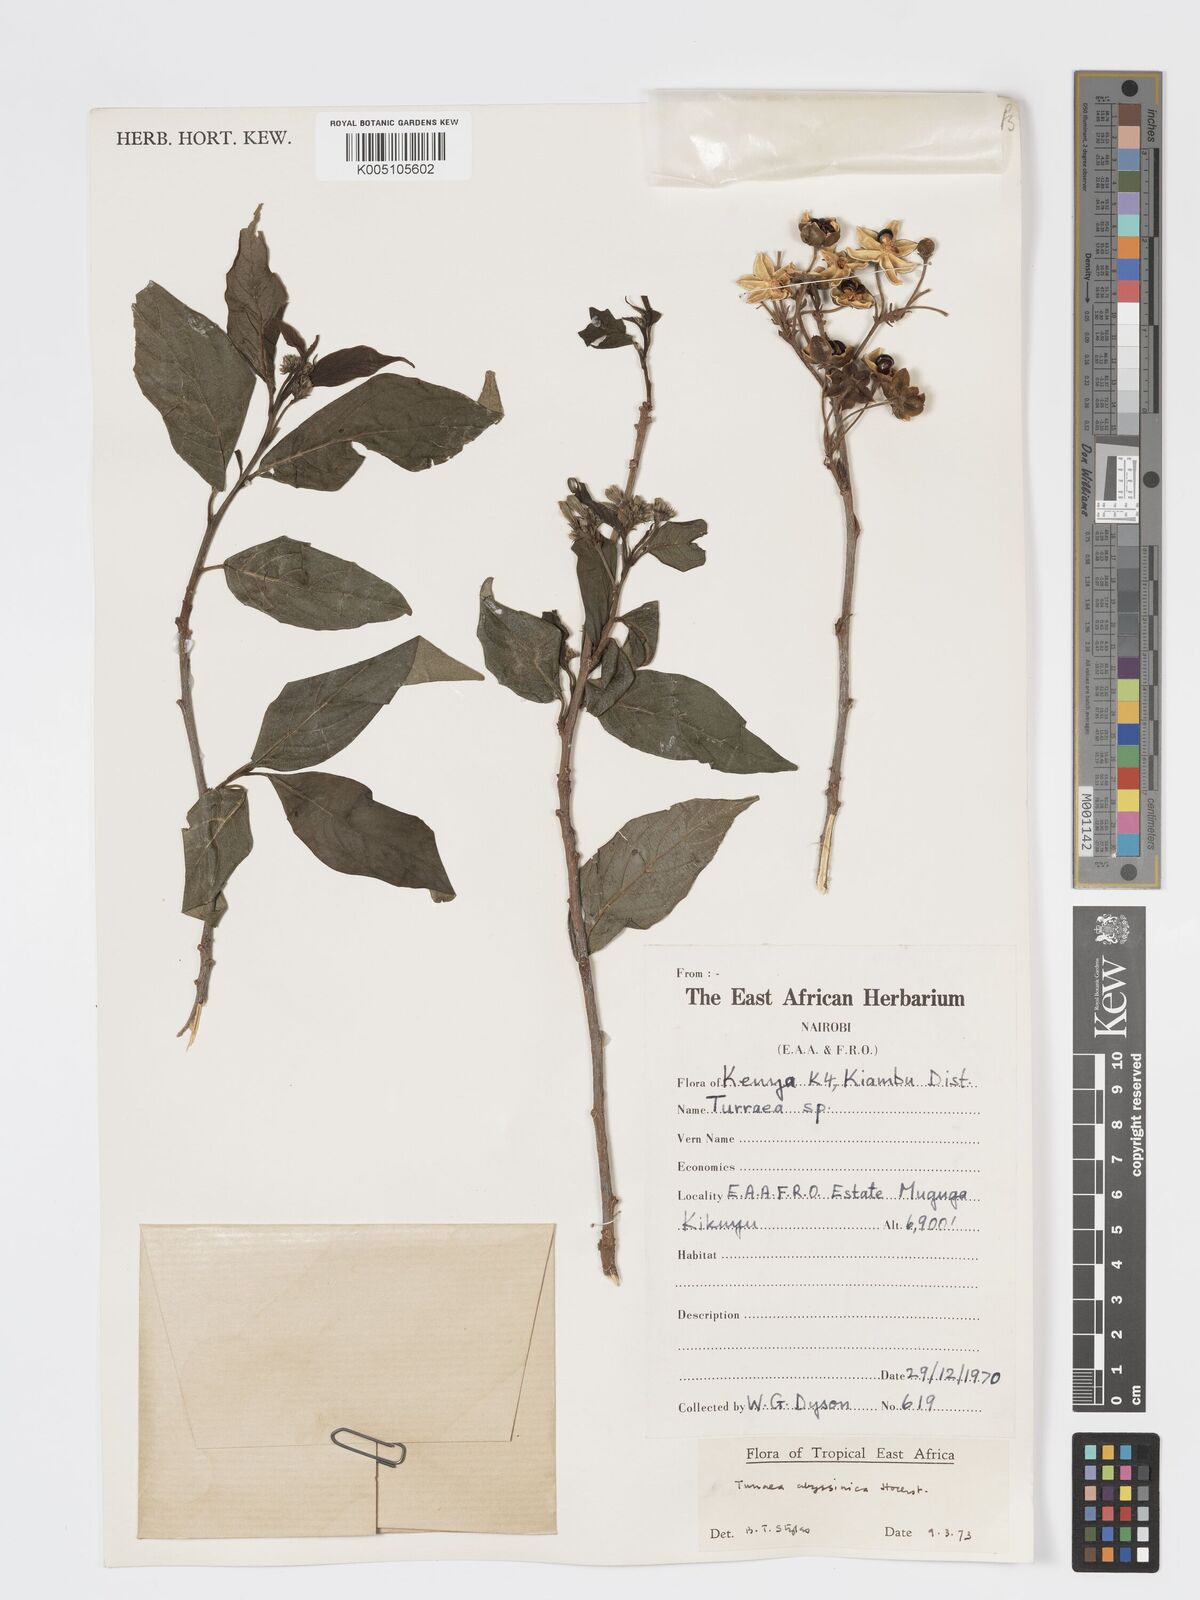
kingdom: Plantae
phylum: Tracheophyta
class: Magnoliopsida
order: Sapindales
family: Meliaceae
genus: Turraea
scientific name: Turraea abyssinica
